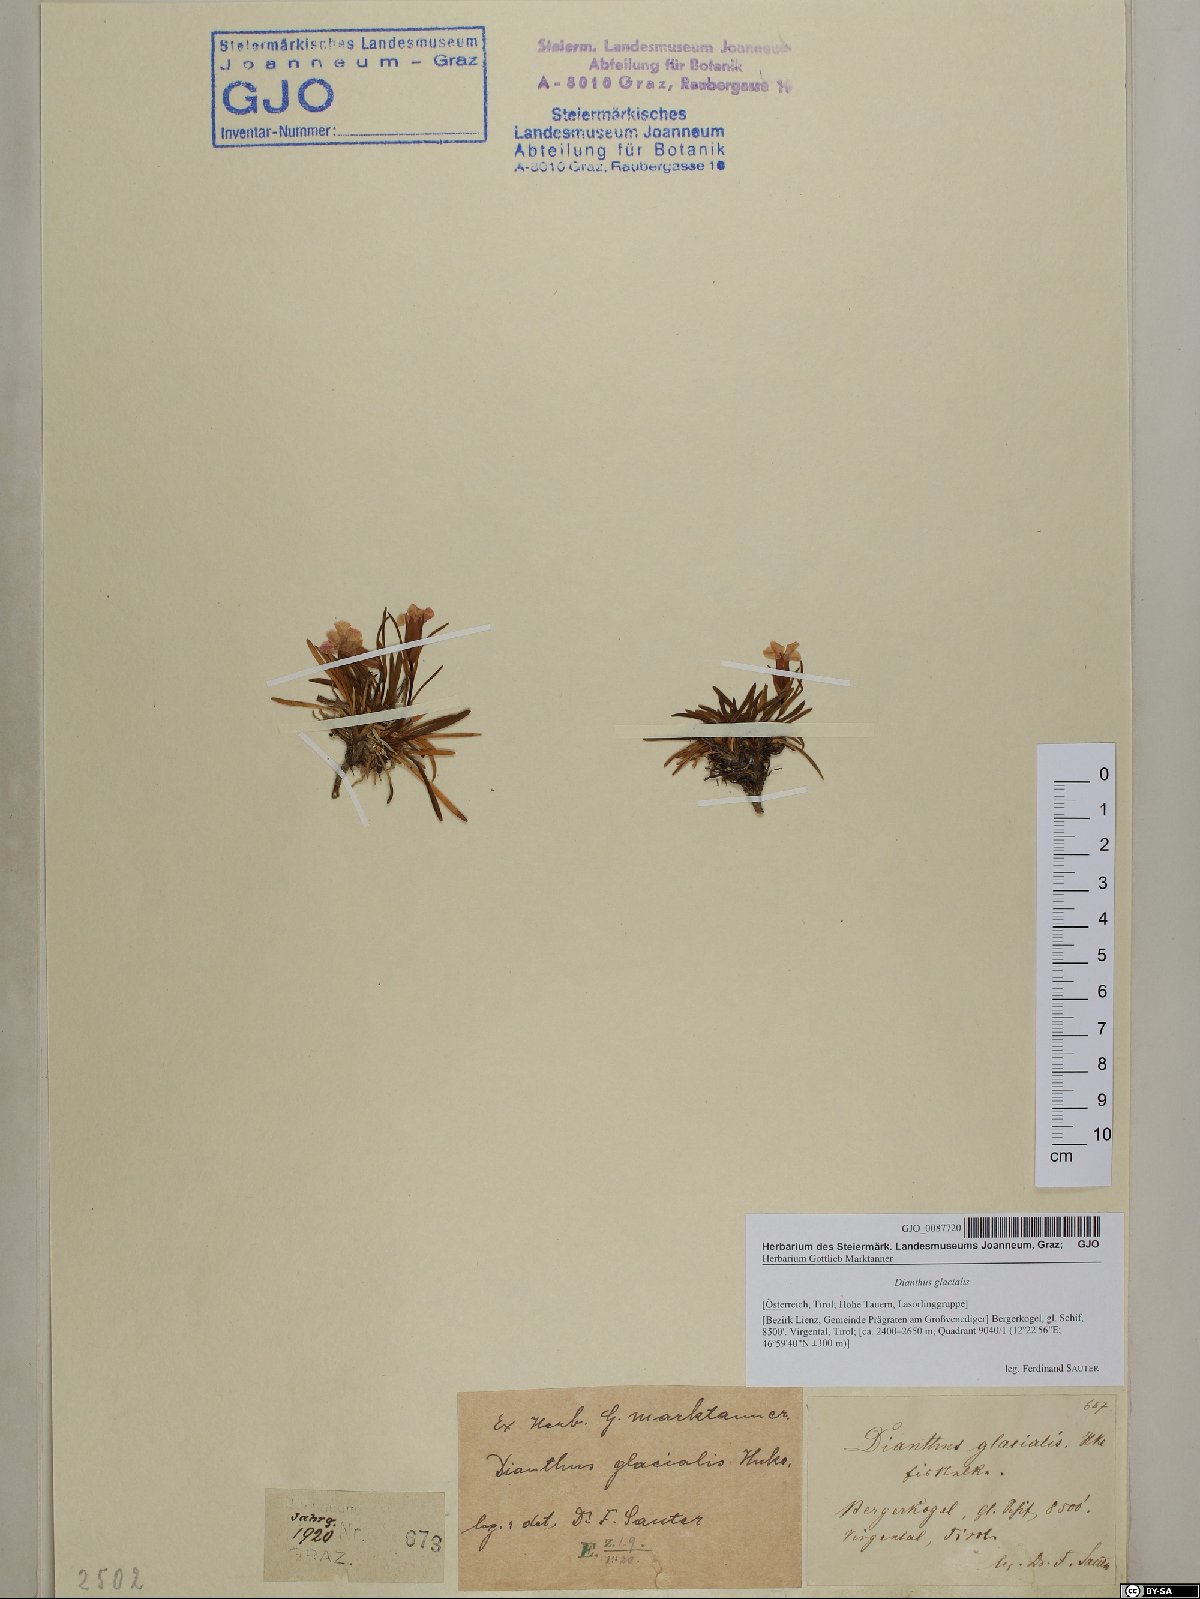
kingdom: Plantae
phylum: Tracheophyta
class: Magnoliopsida
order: Caryophyllales
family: Caryophyllaceae
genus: Dianthus
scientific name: Dianthus glacialis
